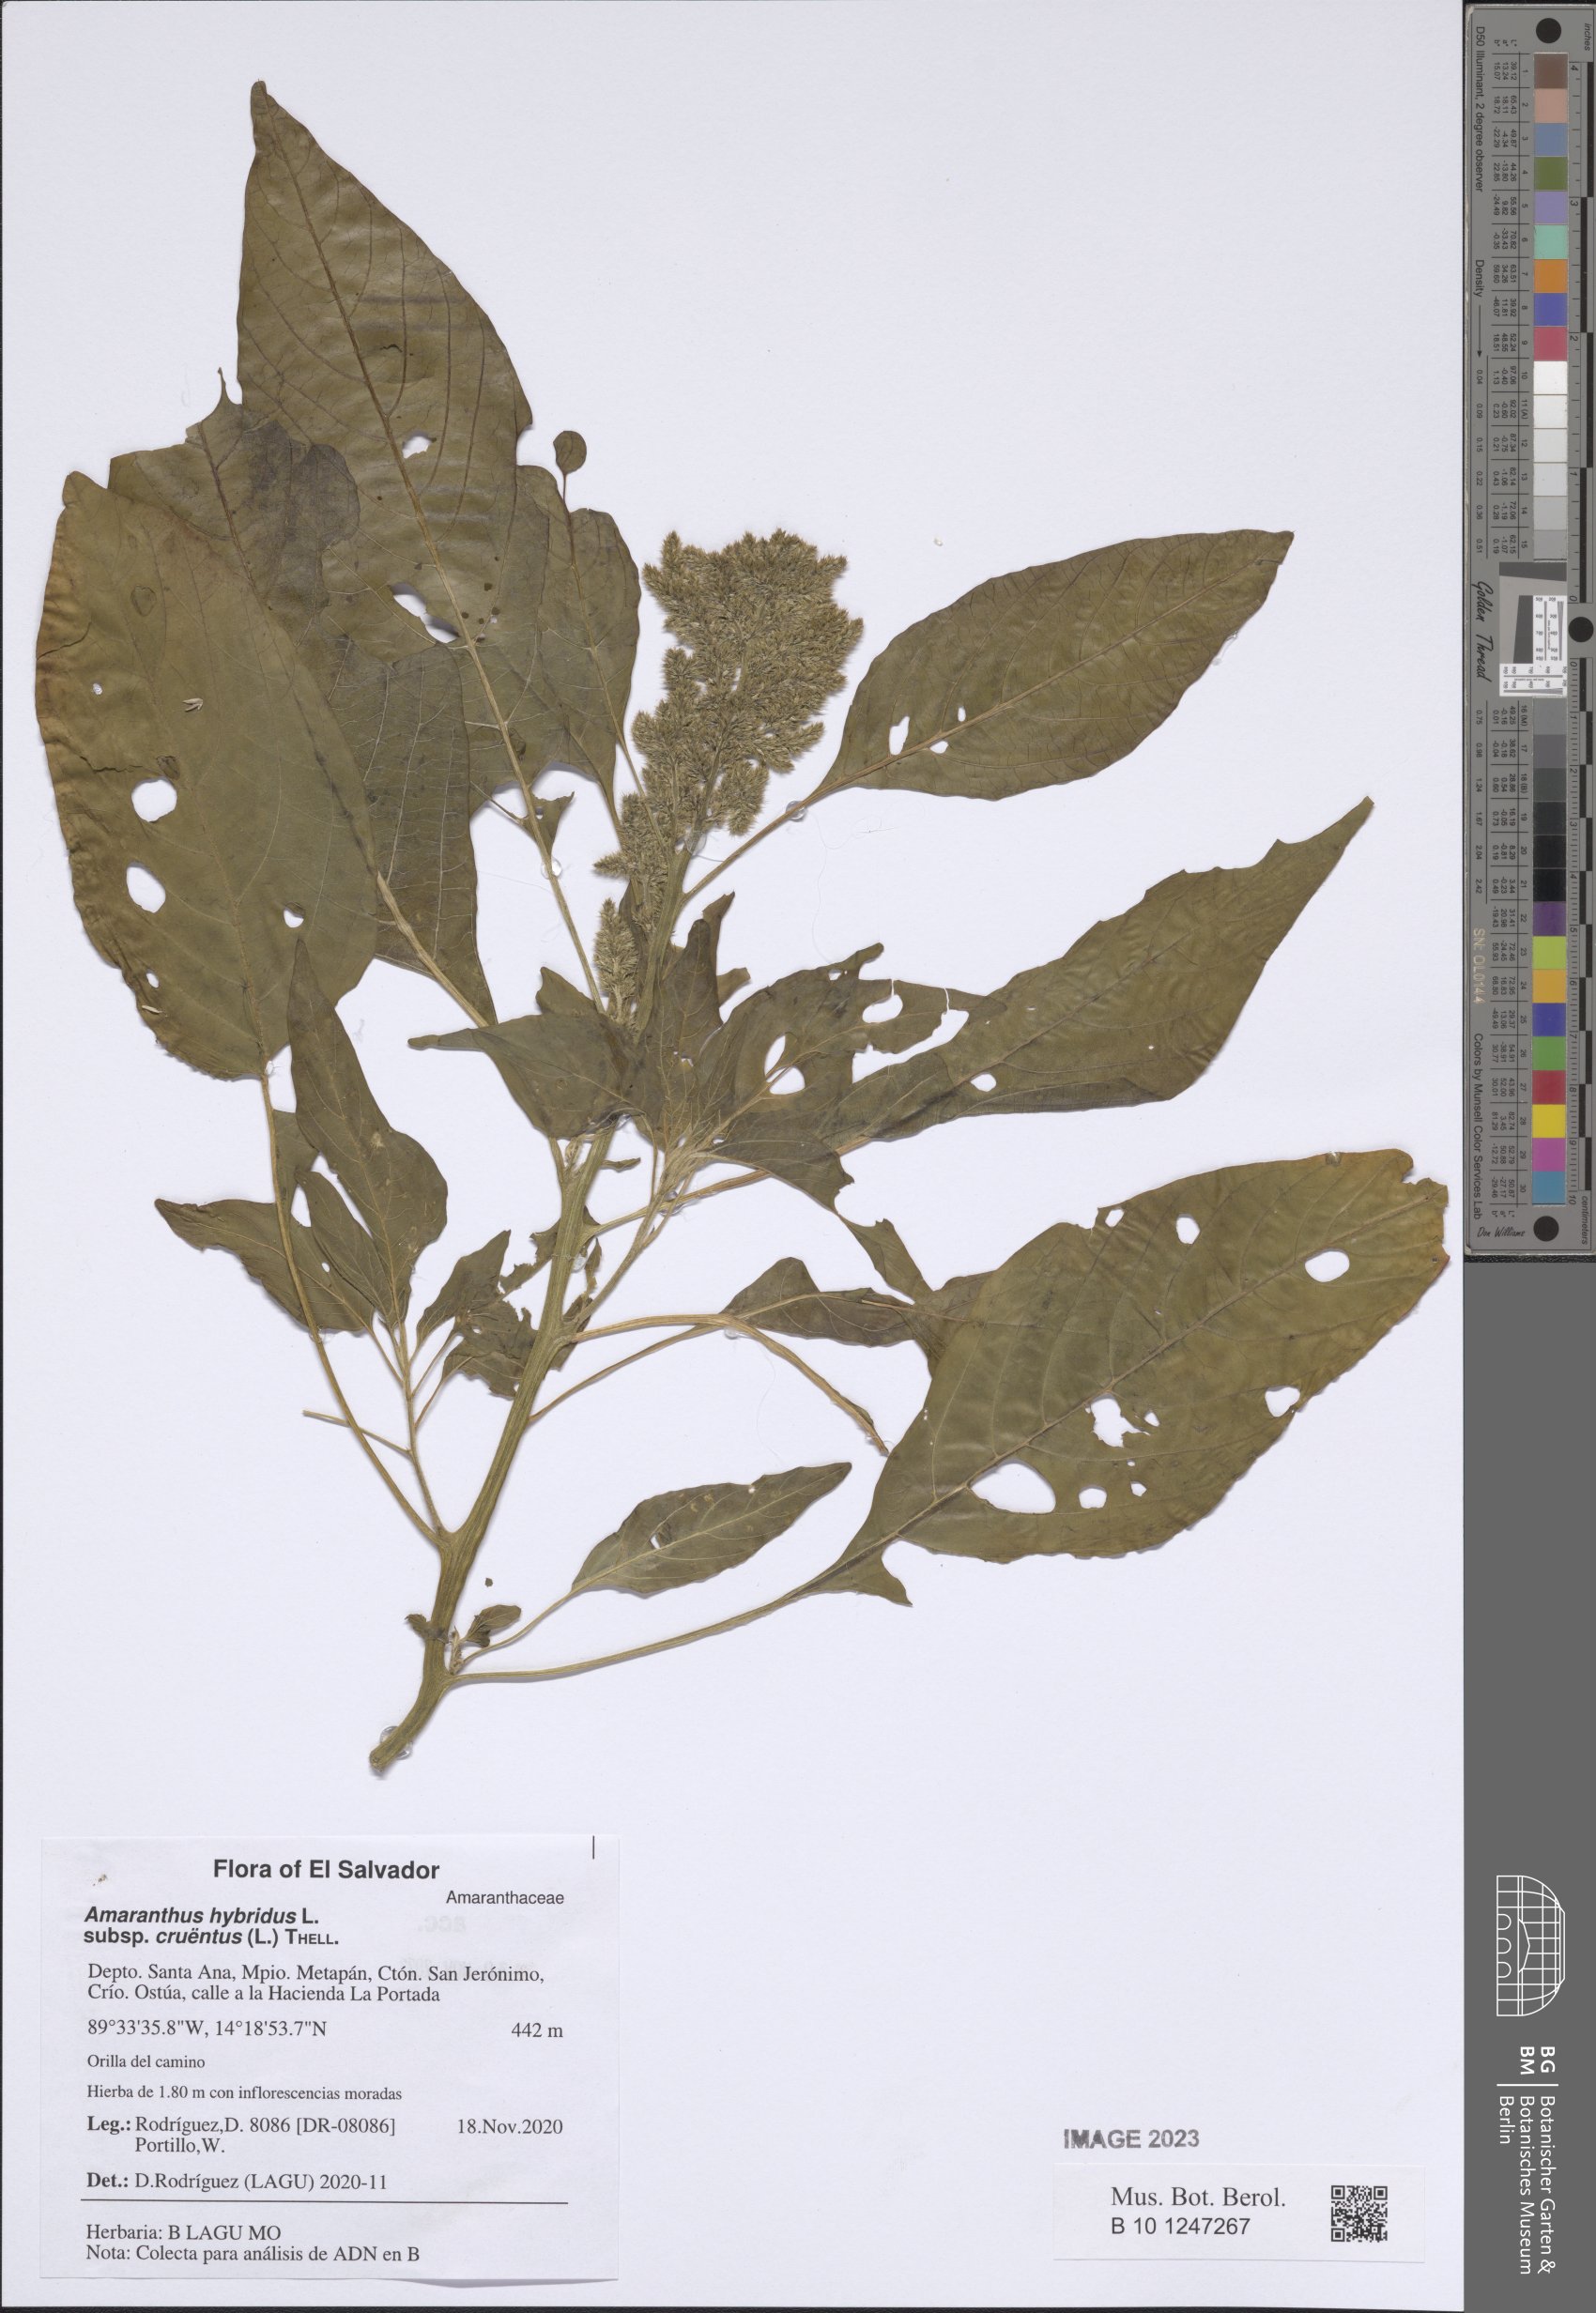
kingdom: Plantae
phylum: Tracheophyta
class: Magnoliopsida
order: Caryophyllales
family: Amaranthaceae
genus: Amaranthus
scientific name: Amaranthus cruentus
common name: Purple amaranth
